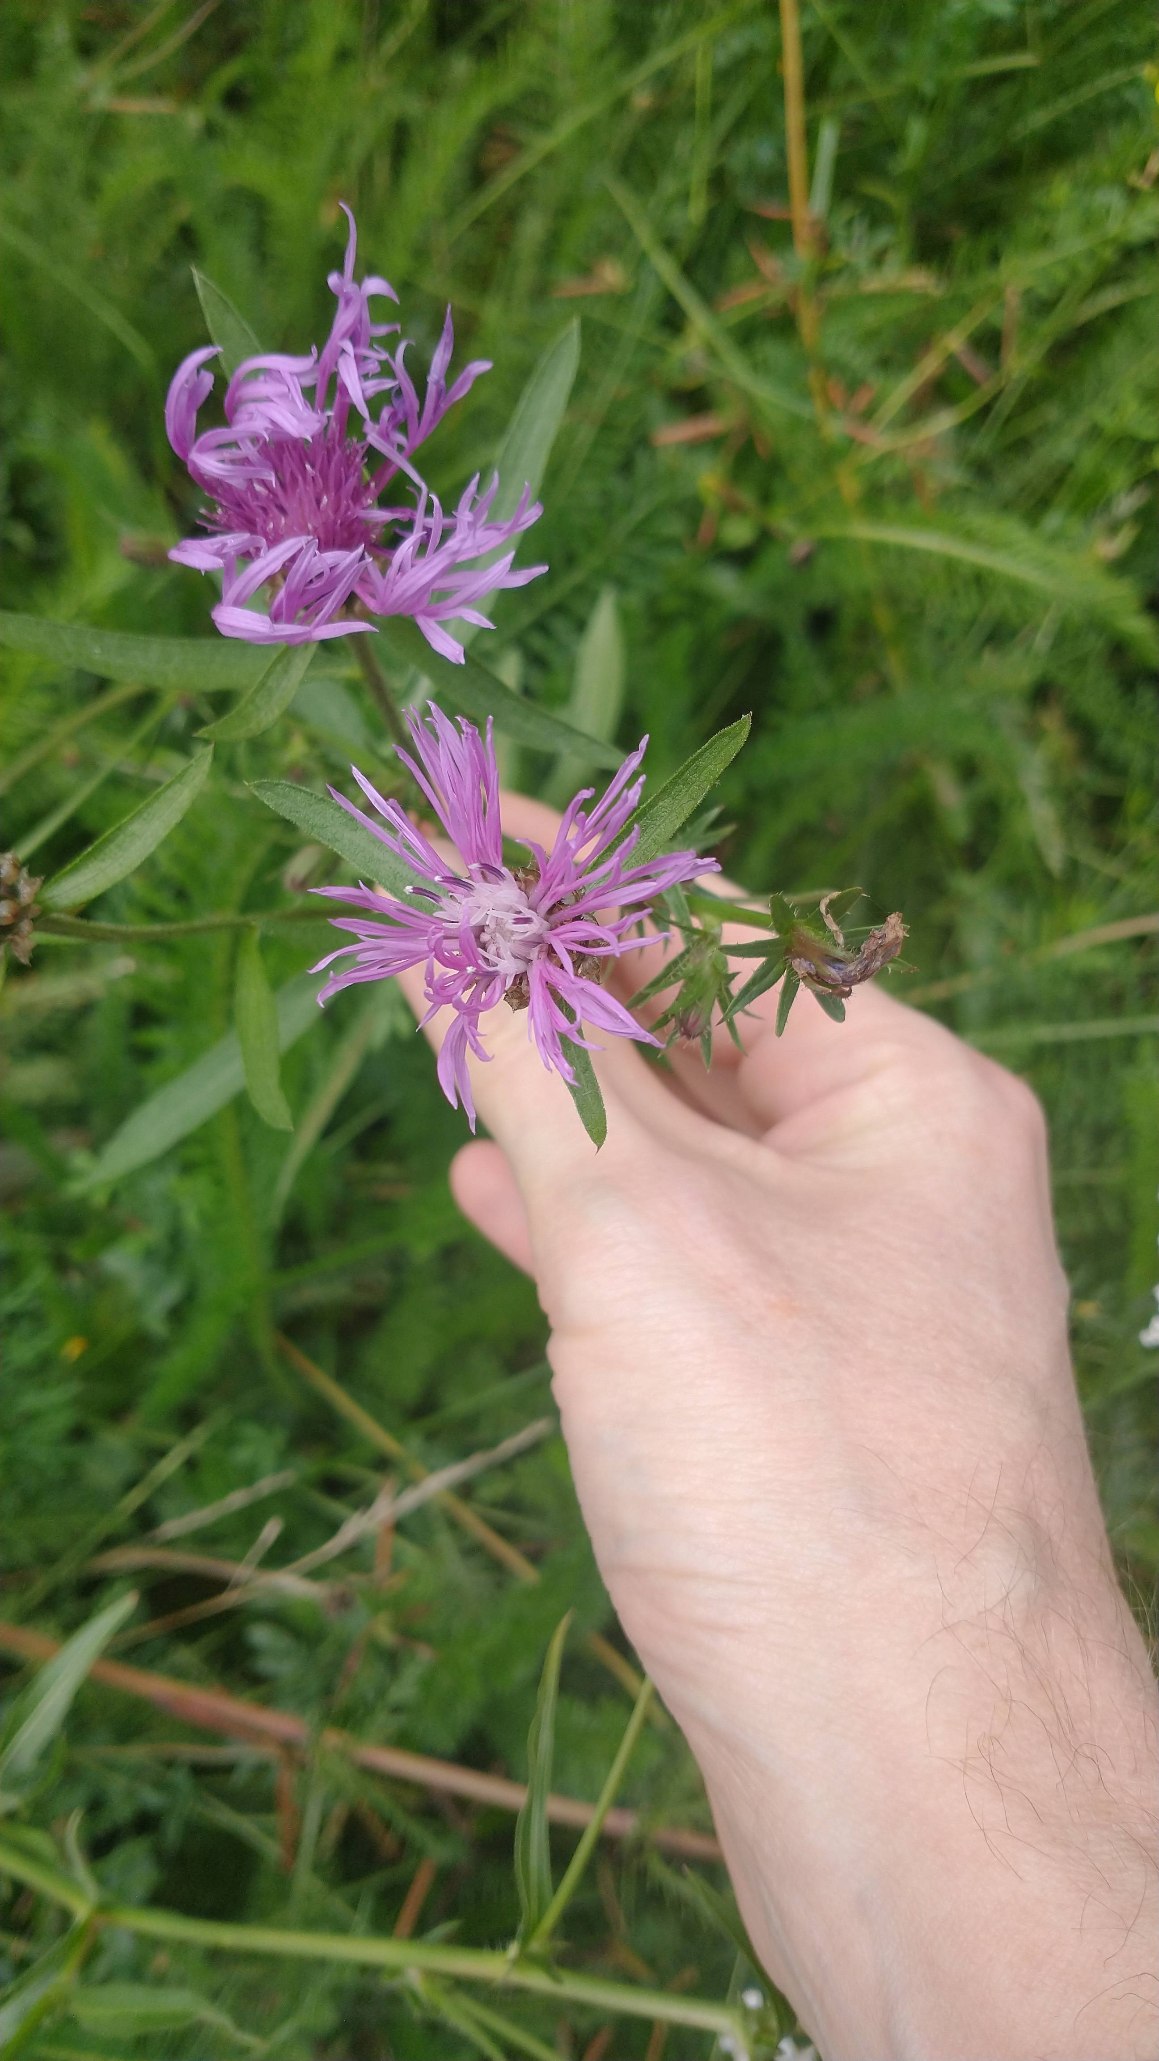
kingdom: Plantae
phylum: Tracheophyta
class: Magnoliopsida
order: Asterales
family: Asteraceae
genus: Centaurea
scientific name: Centaurea jacea
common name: Almindelig knopurt
